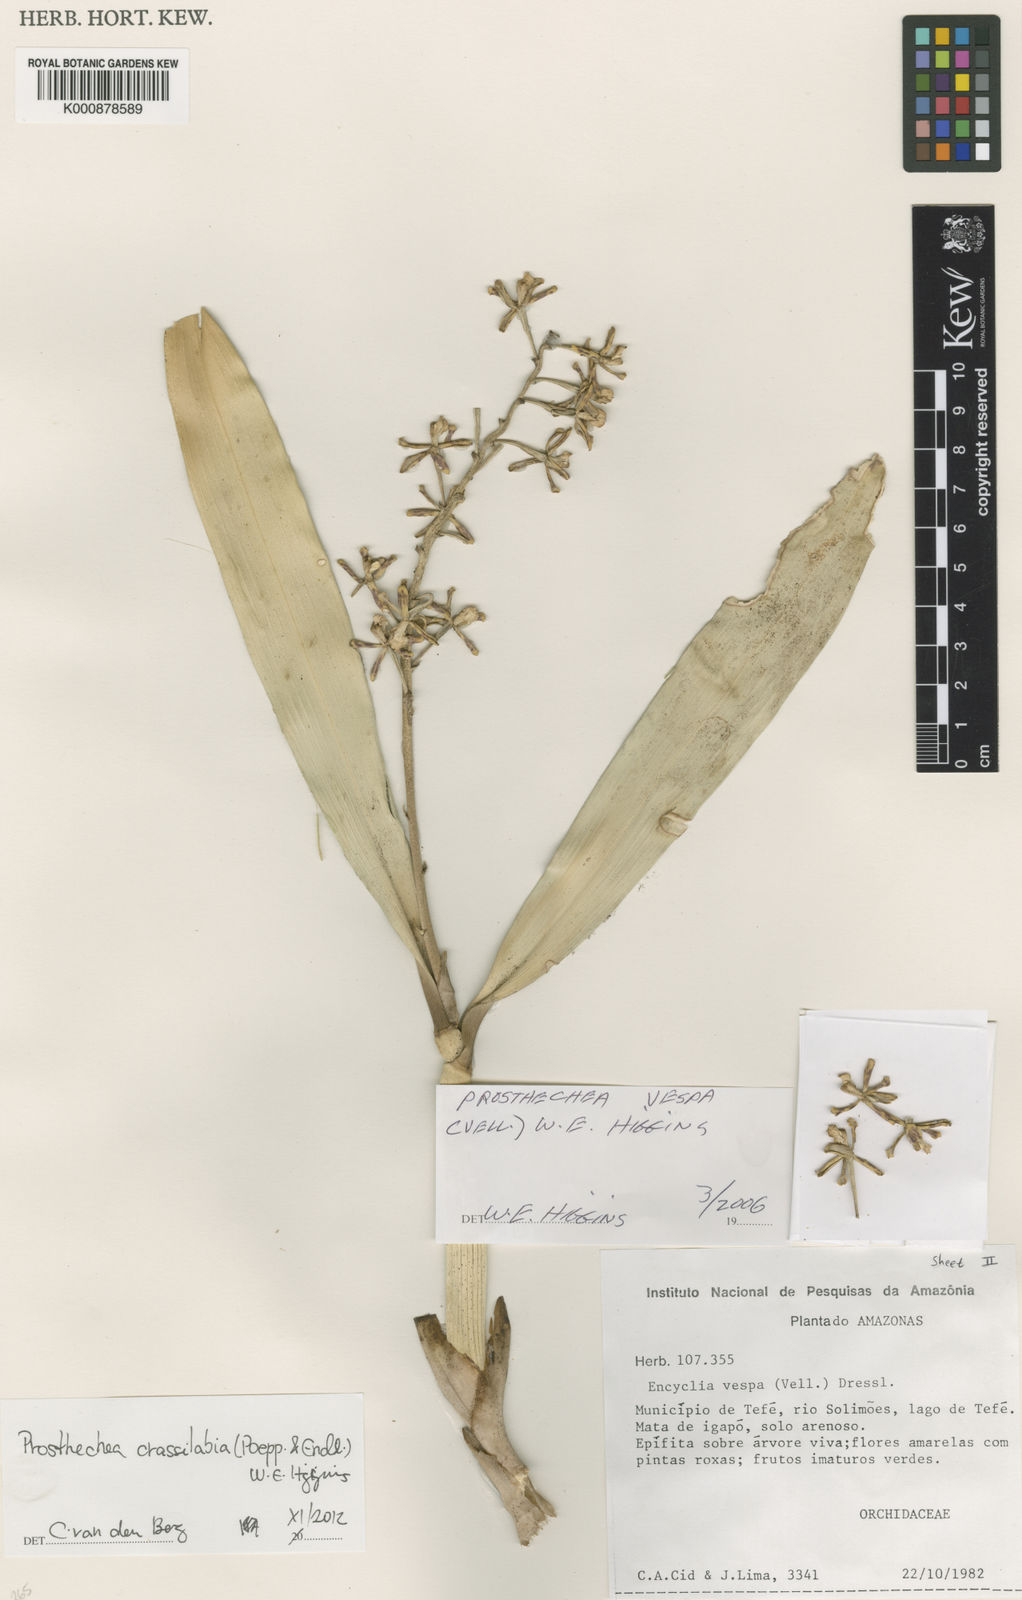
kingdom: Plantae
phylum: Tracheophyta
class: Liliopsida
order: Asparagales
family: Orchidaceae
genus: Prosthechea
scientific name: Prosthechea
